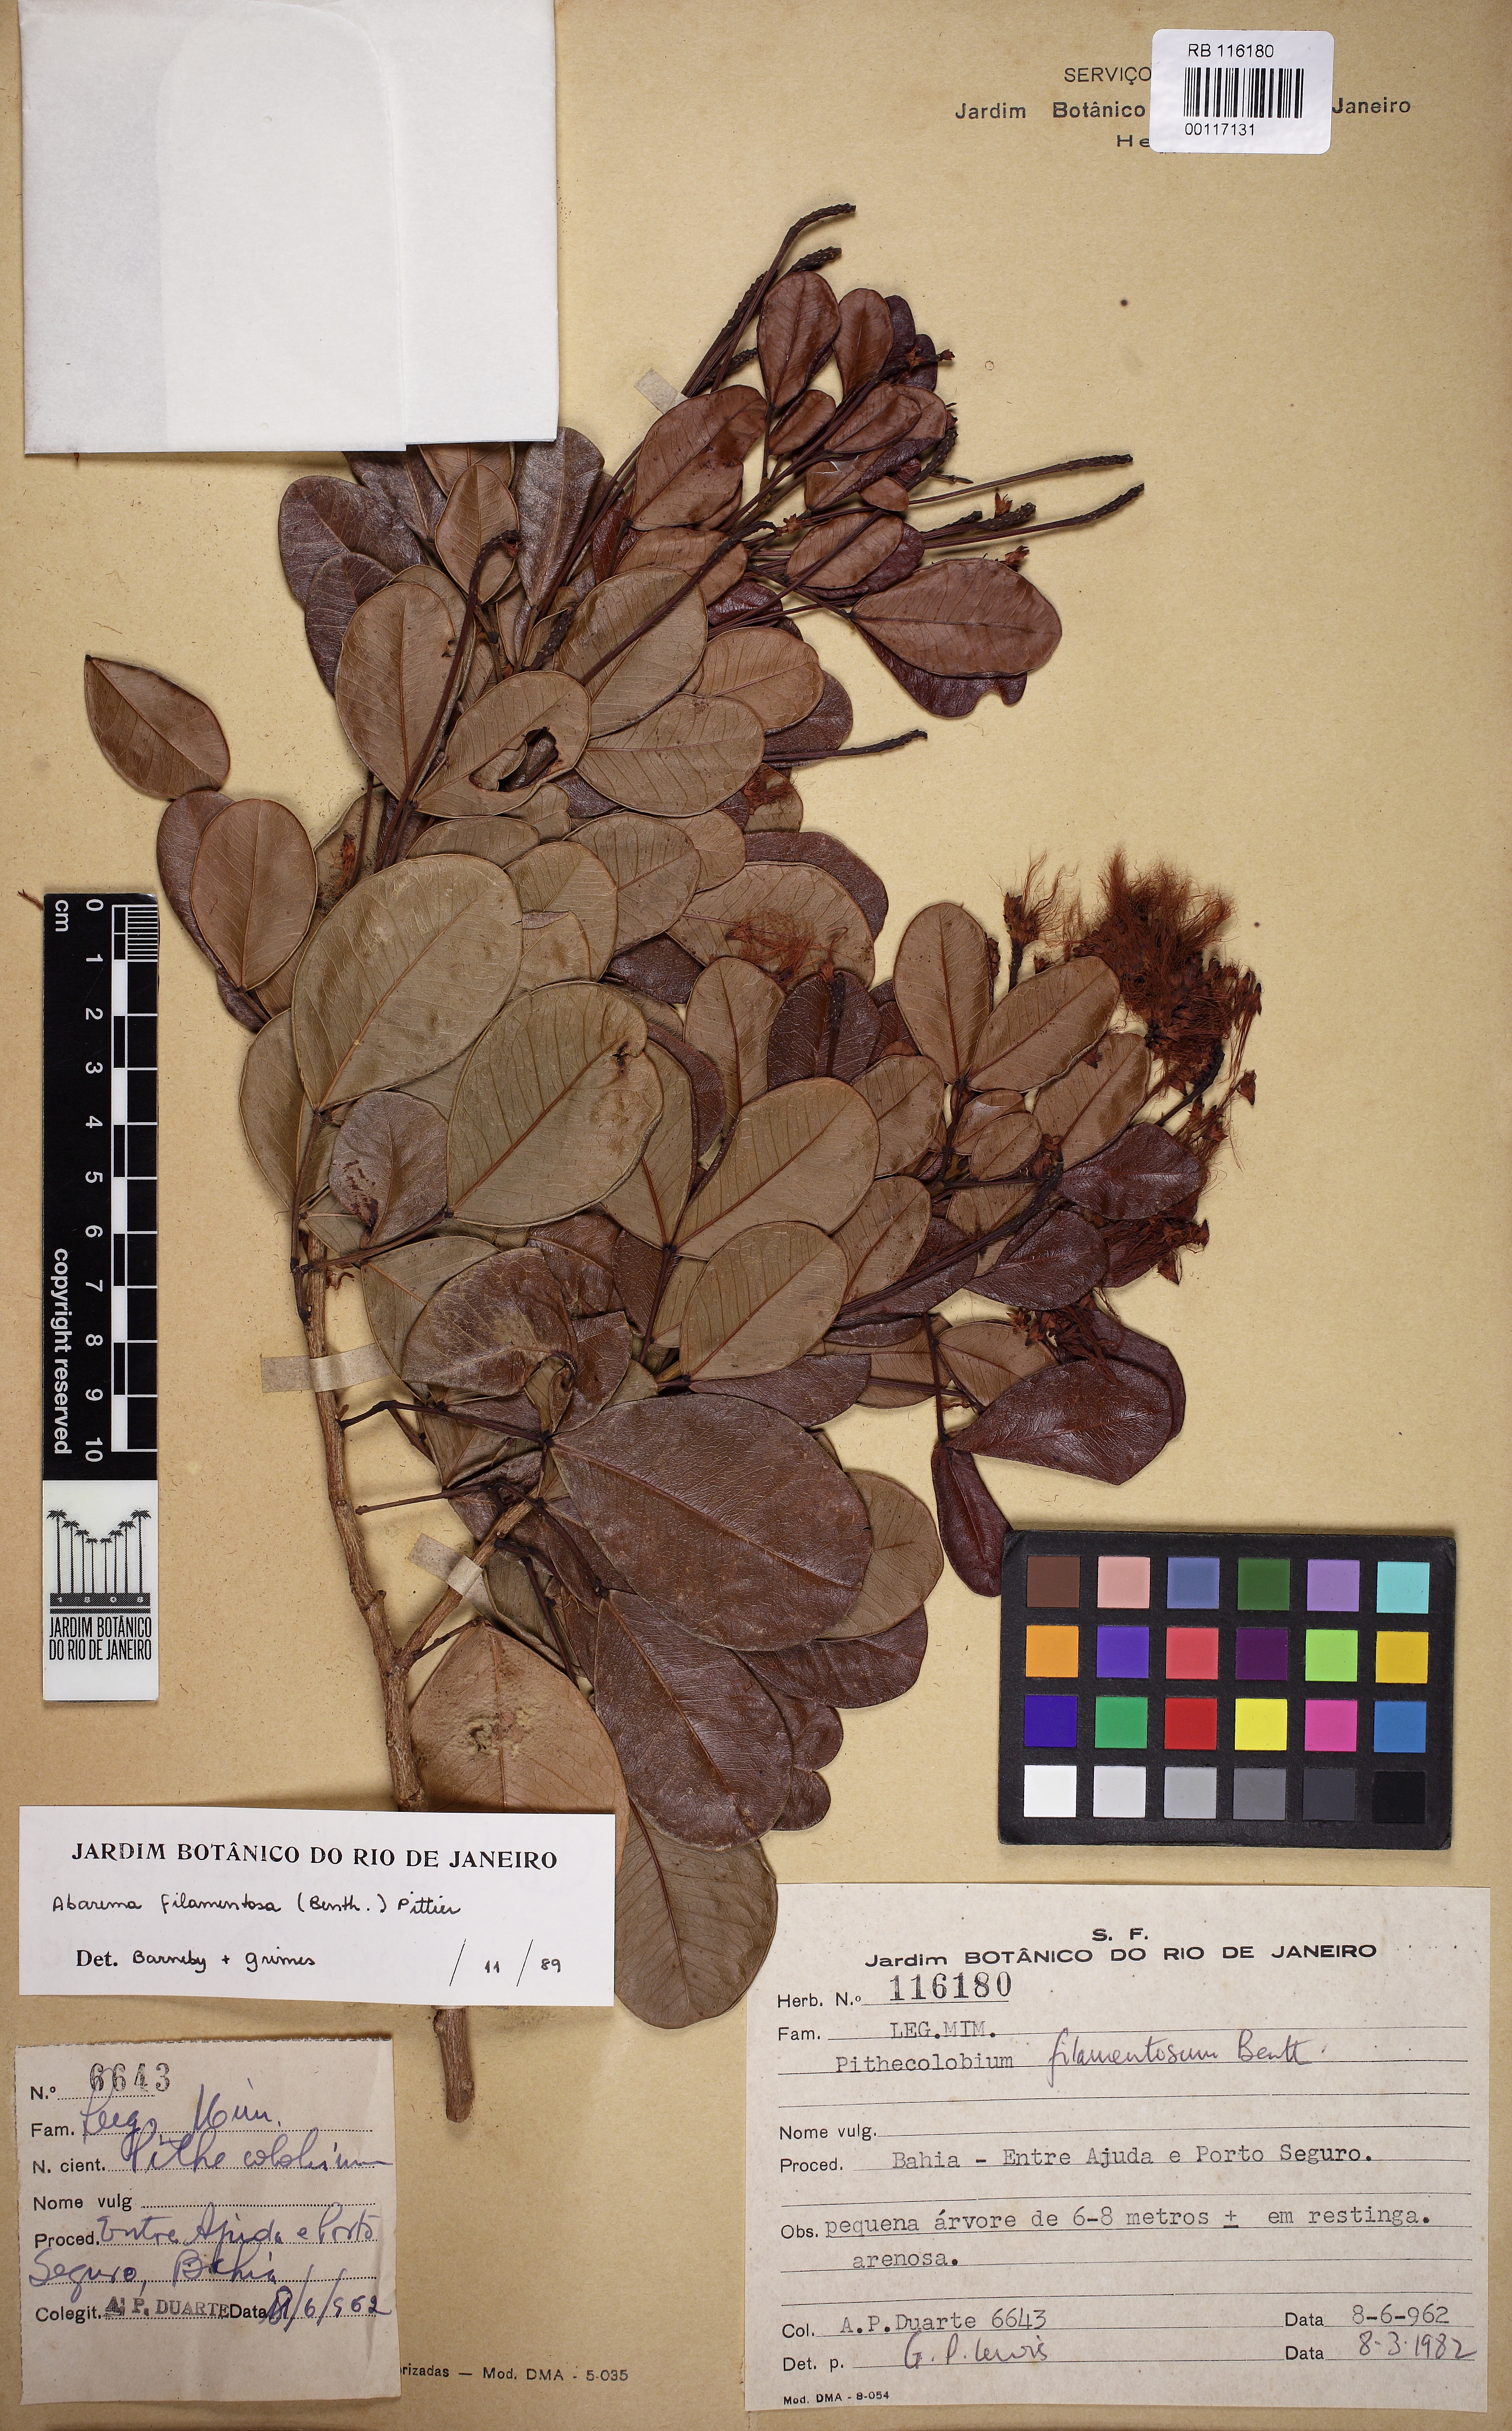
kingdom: Plantae
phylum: Tracheophyta
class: Magnoliopsida
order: Fabales
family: Fabaceae
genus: Jupunba
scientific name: Jupunba filamentosa
